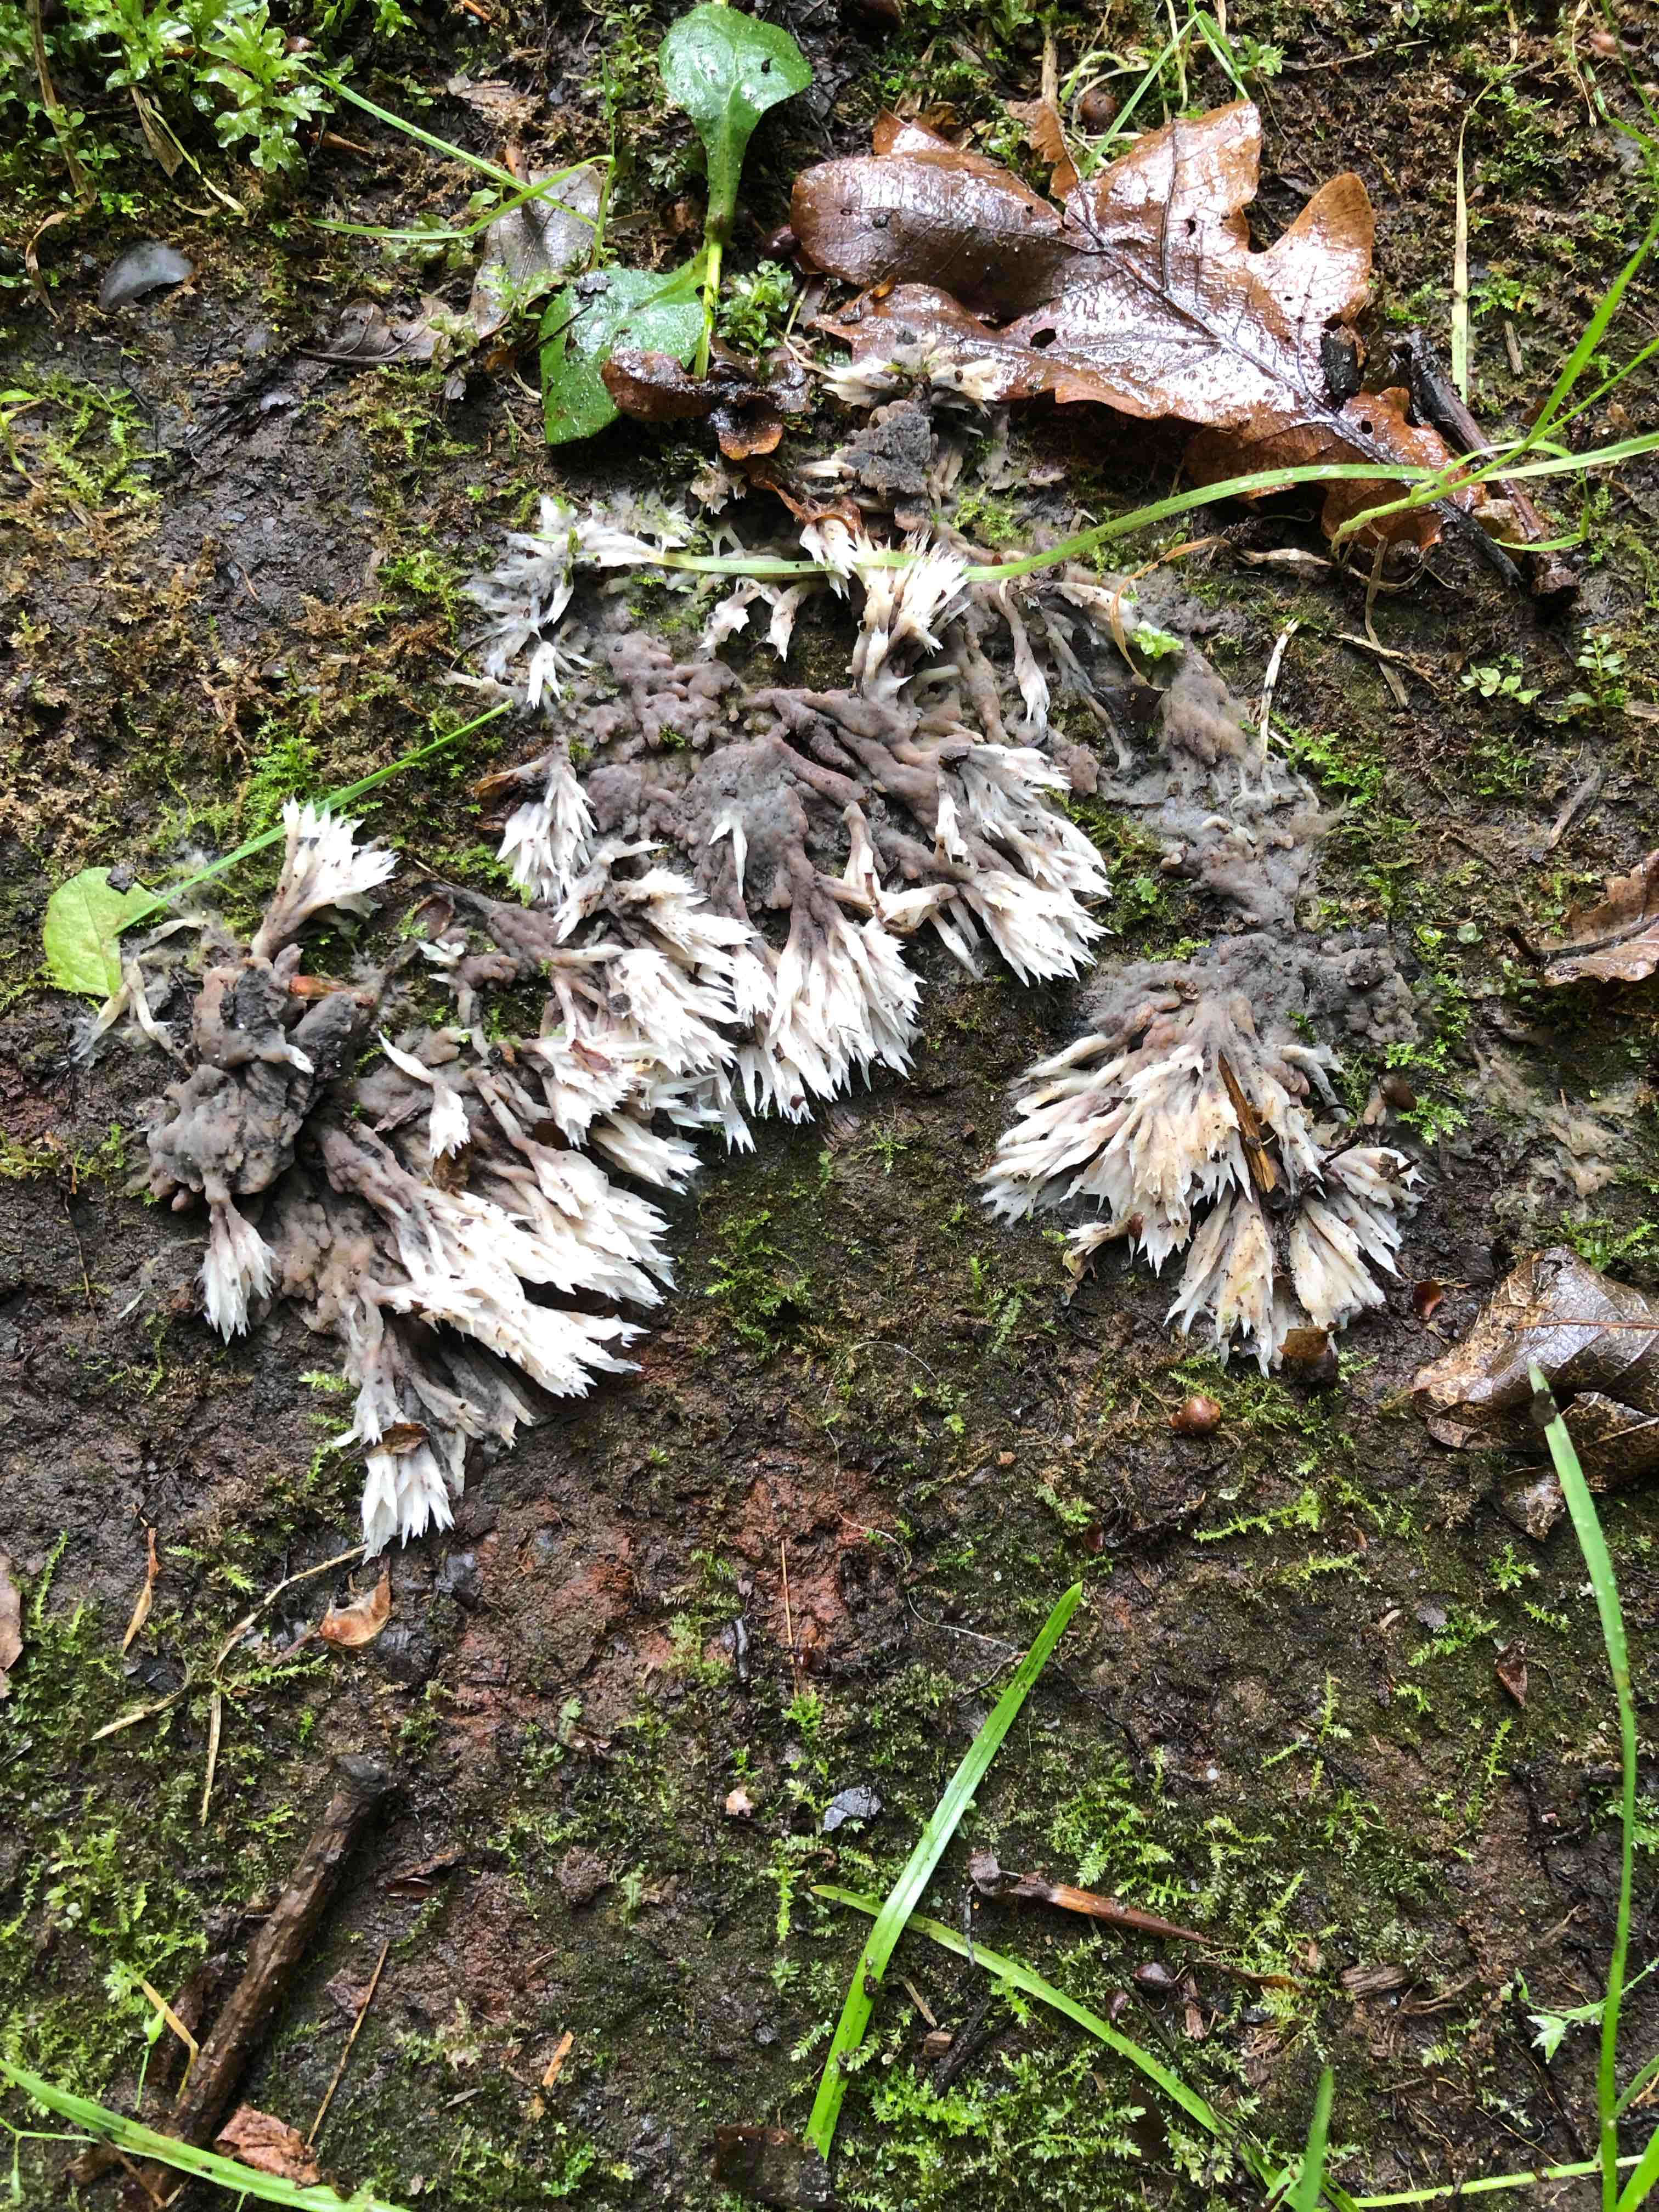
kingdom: Fungi
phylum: Basidiomycota
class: Agaricomycetes
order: Thelephorales
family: Thelephoraceae
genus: Thelephora
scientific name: Thelephora penicillata
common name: fladtrådt frynsesvamp
